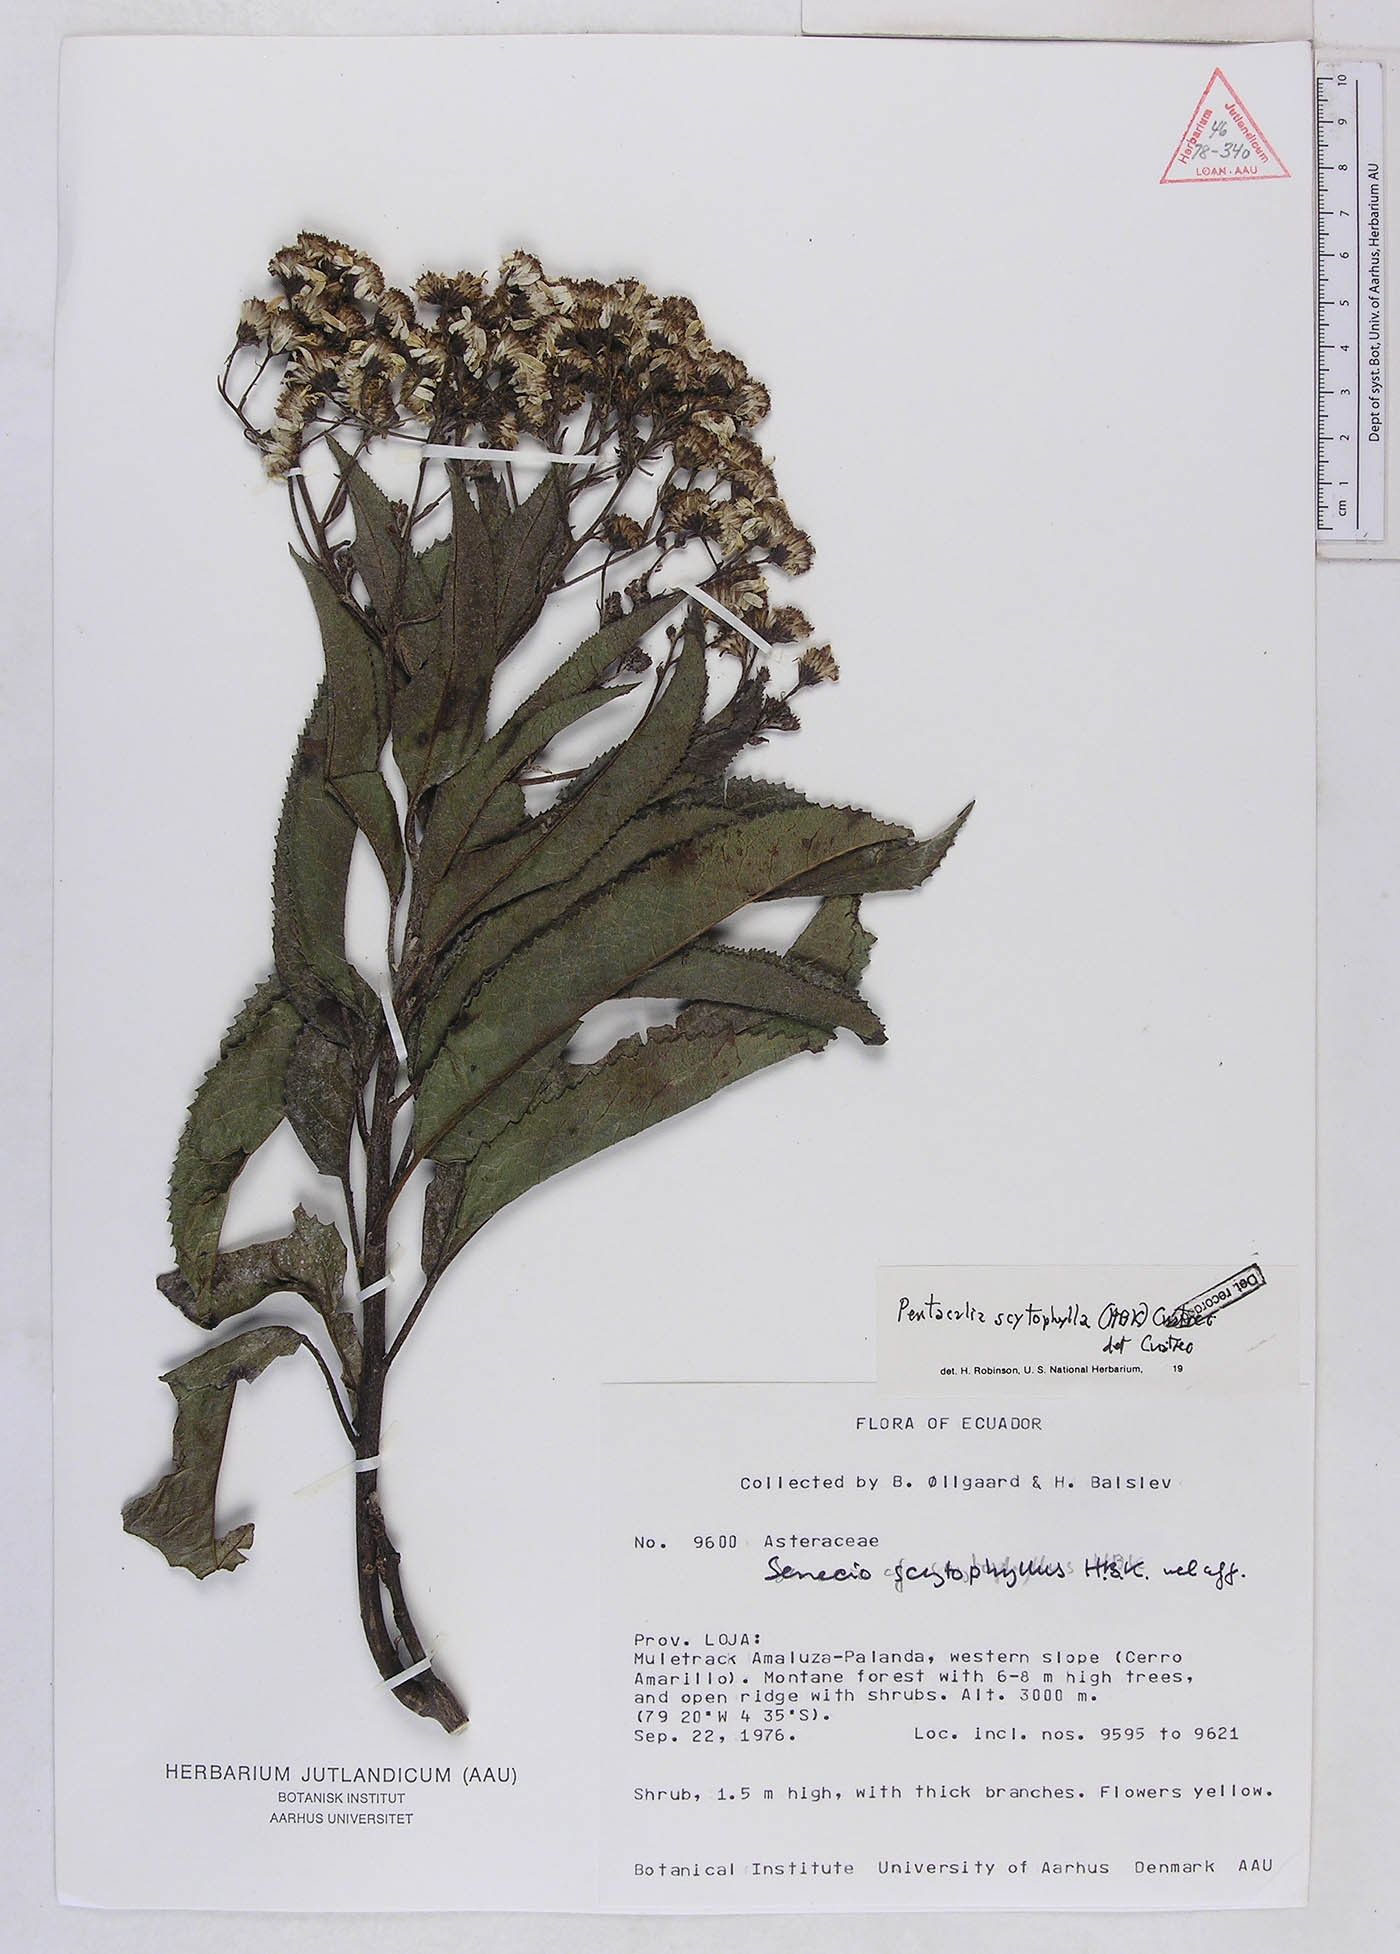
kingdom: Plantae
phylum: Tracheophyta
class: Magnoliopsida
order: Asterales
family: Asteraceae
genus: Pentacalia
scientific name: Pentacalia scitophylla
